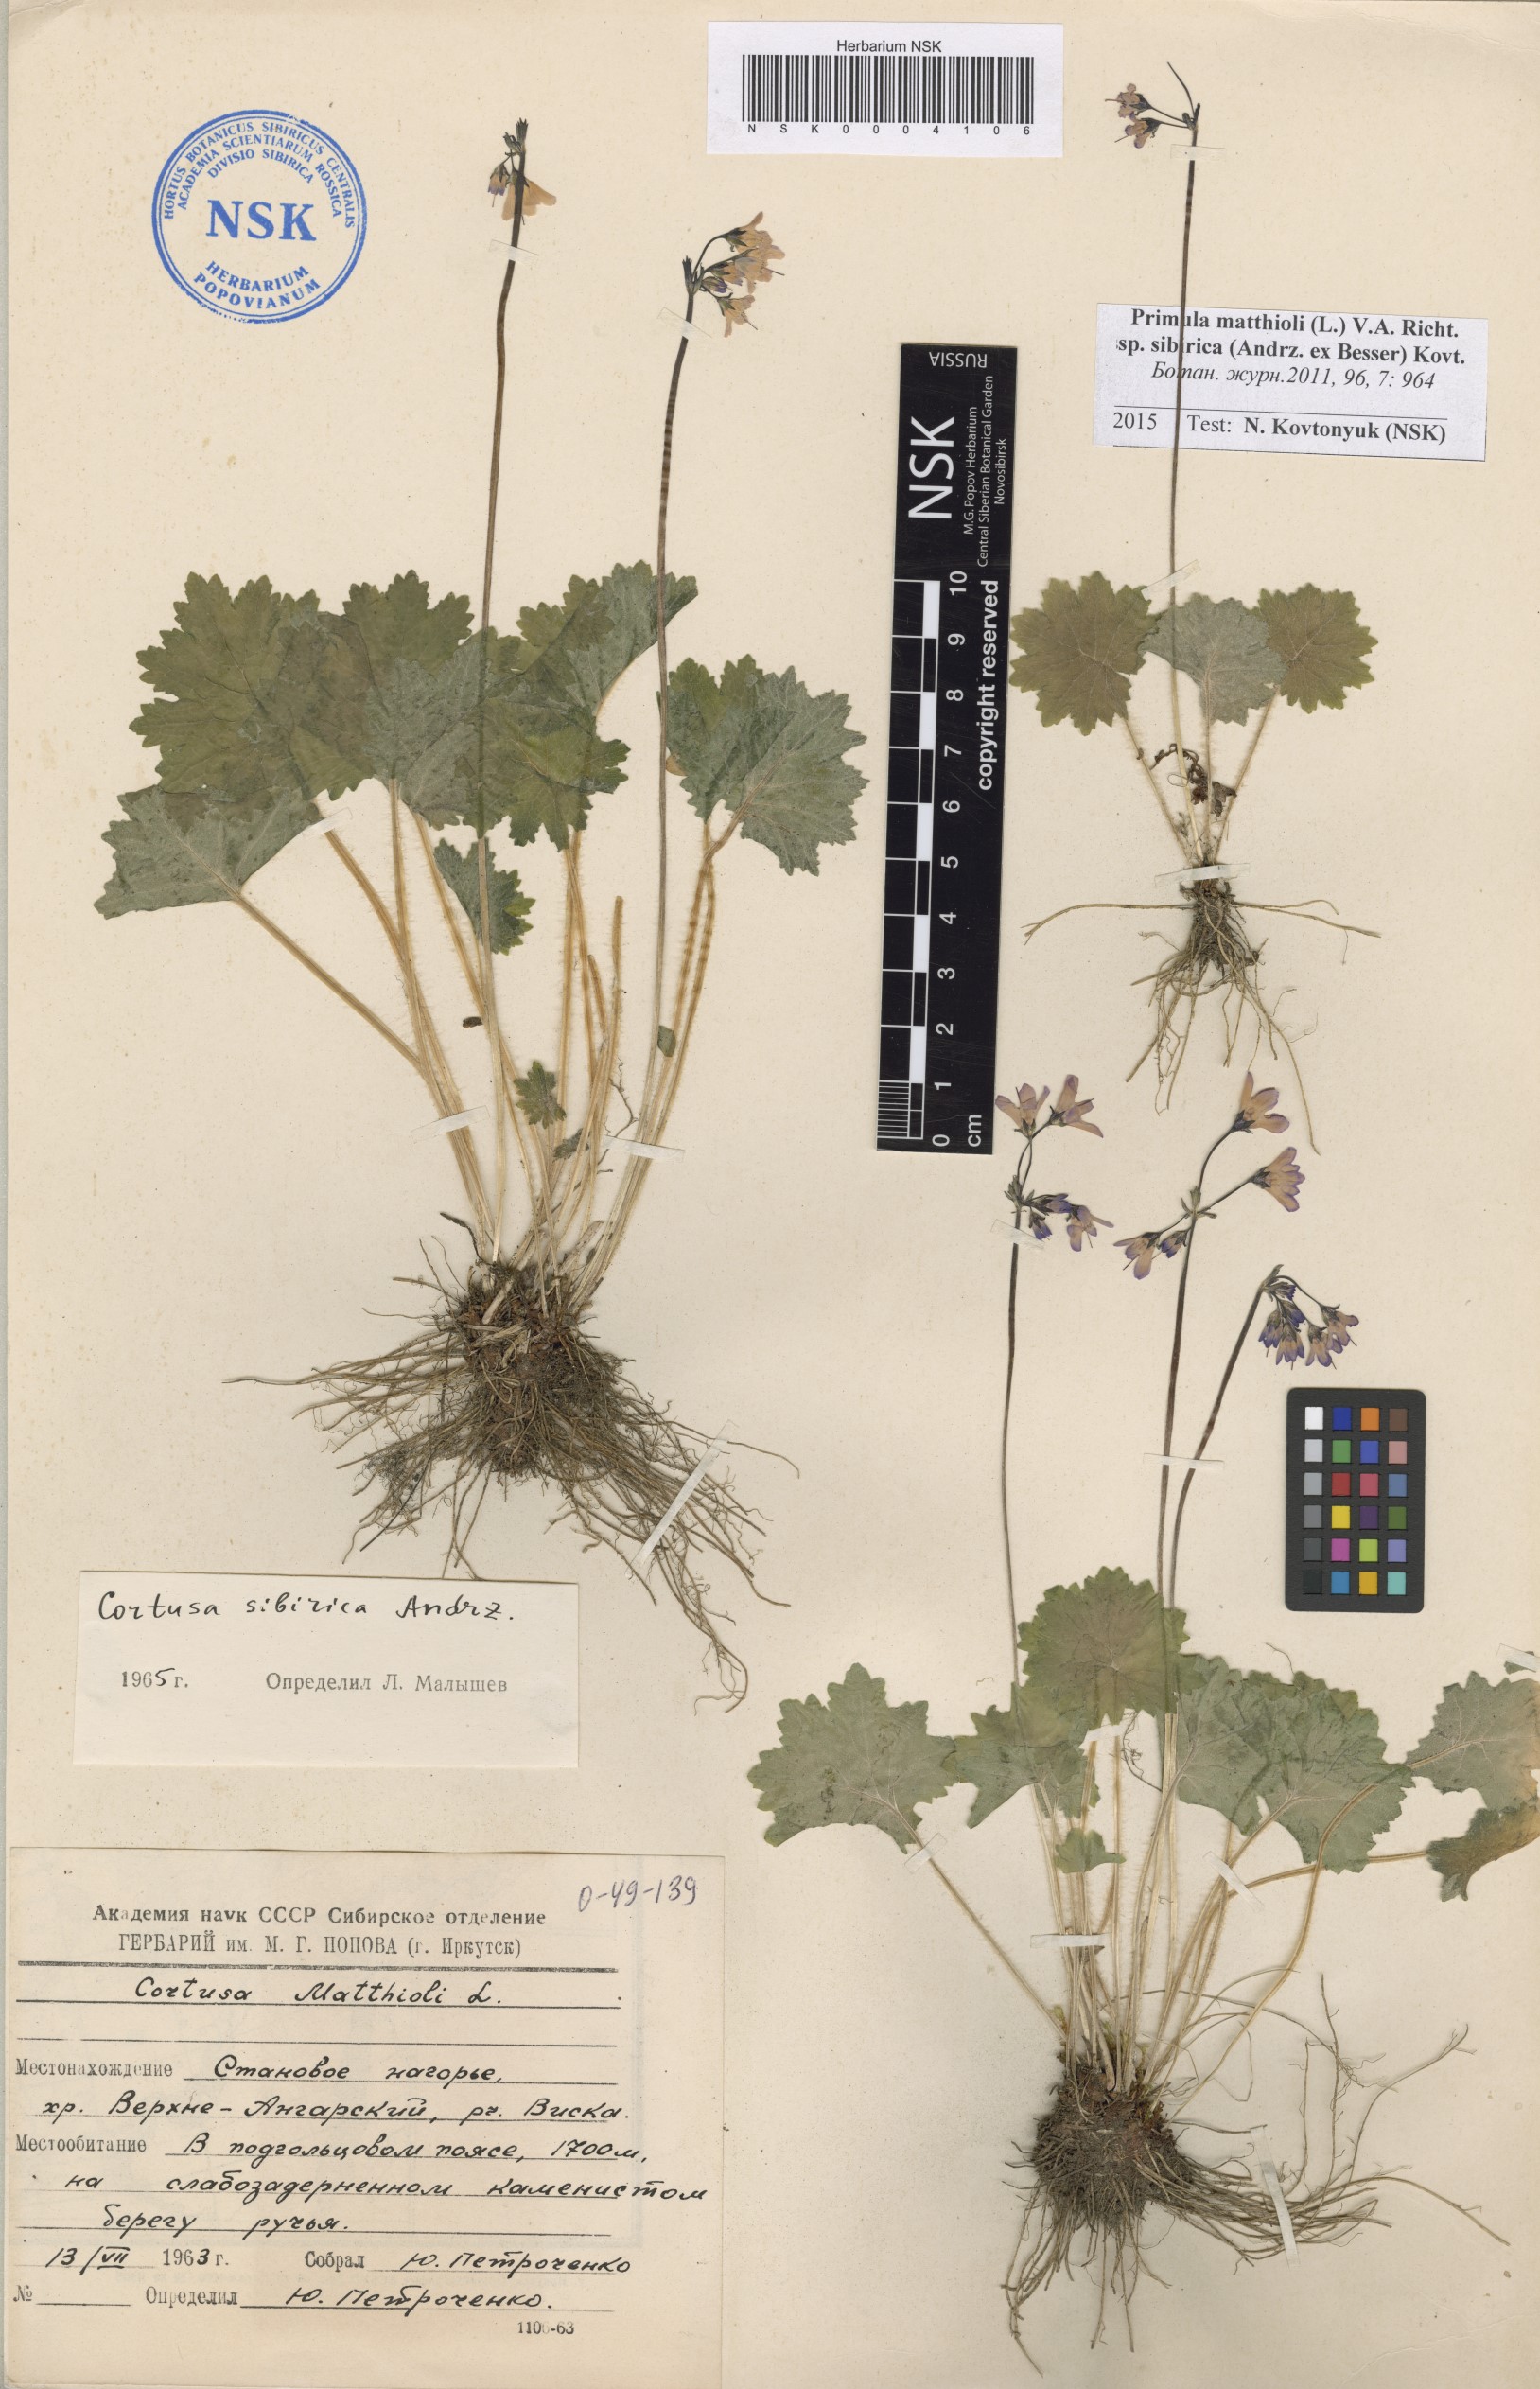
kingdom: Plantae
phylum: Tracheophyta
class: Magnoliopsida
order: Ericales
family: Primulaceae
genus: Primula
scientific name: Primula matthioli
